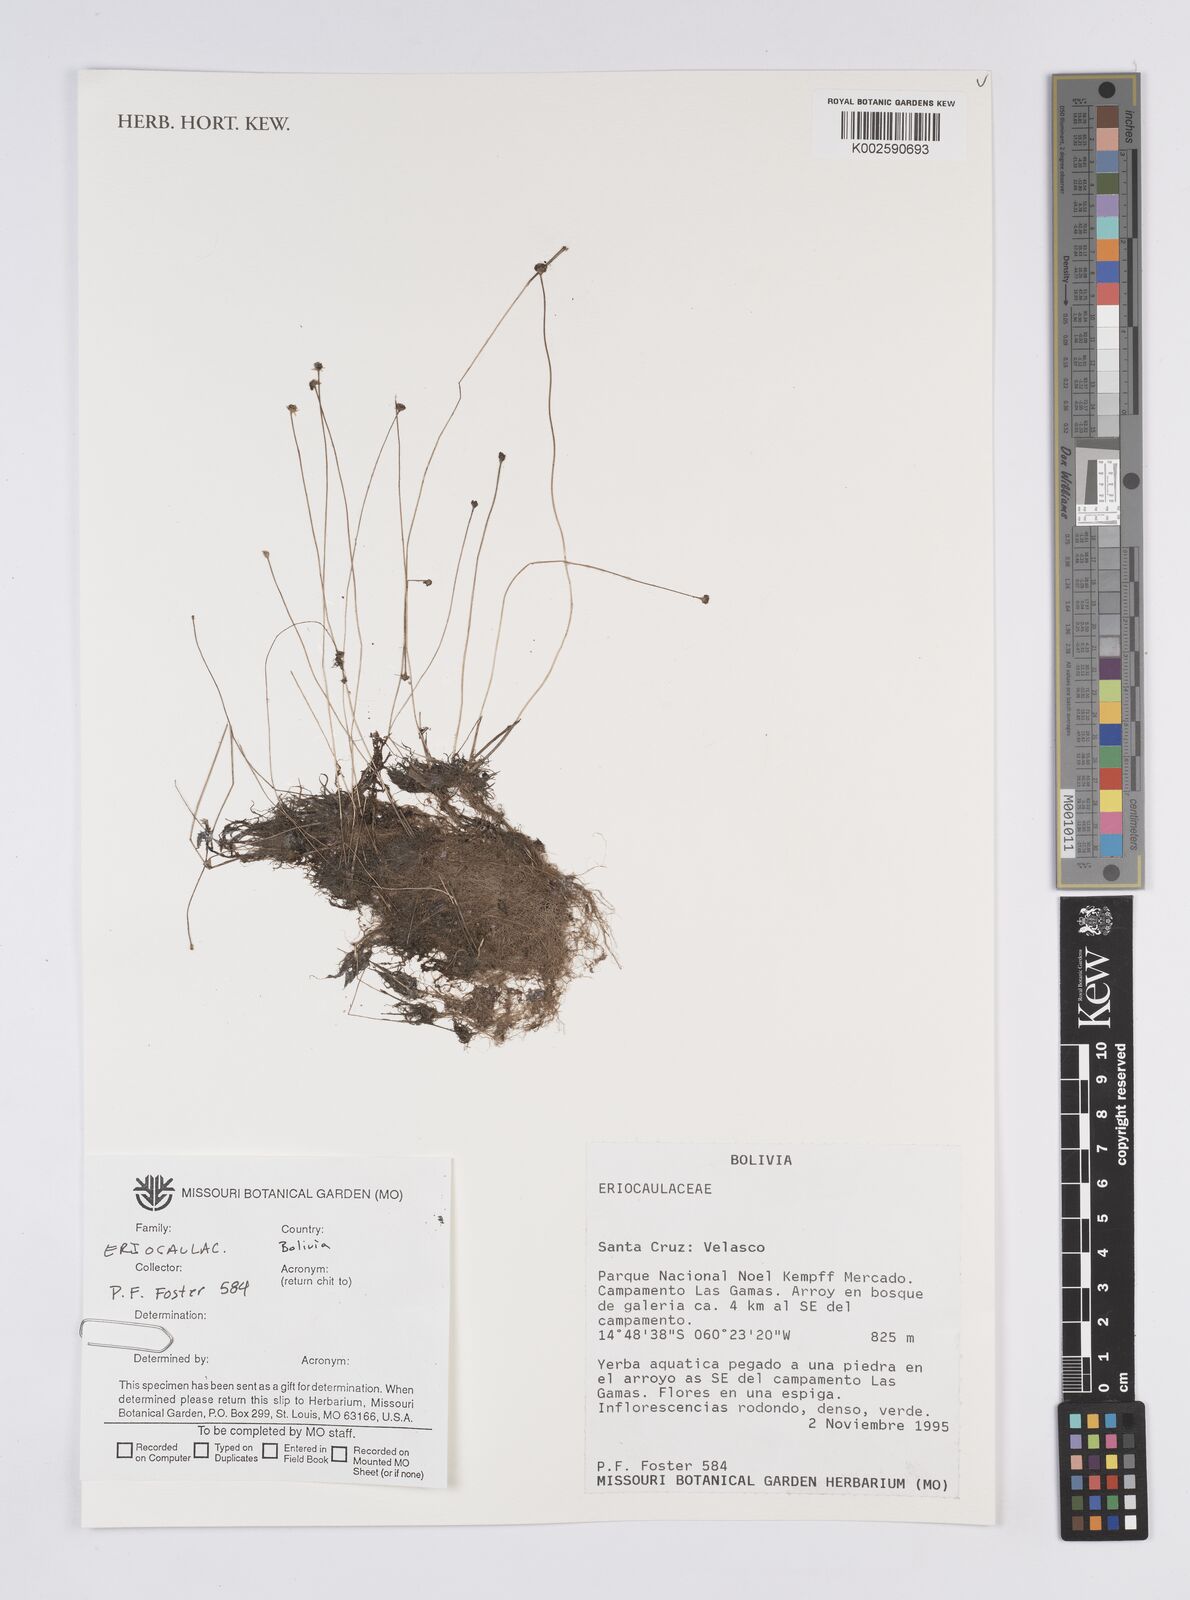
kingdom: Plantae
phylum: Tracheophyta
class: Liliopsida
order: Poales
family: Eriocaulaceae
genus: Syngonanthus
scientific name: Syngonanthus
